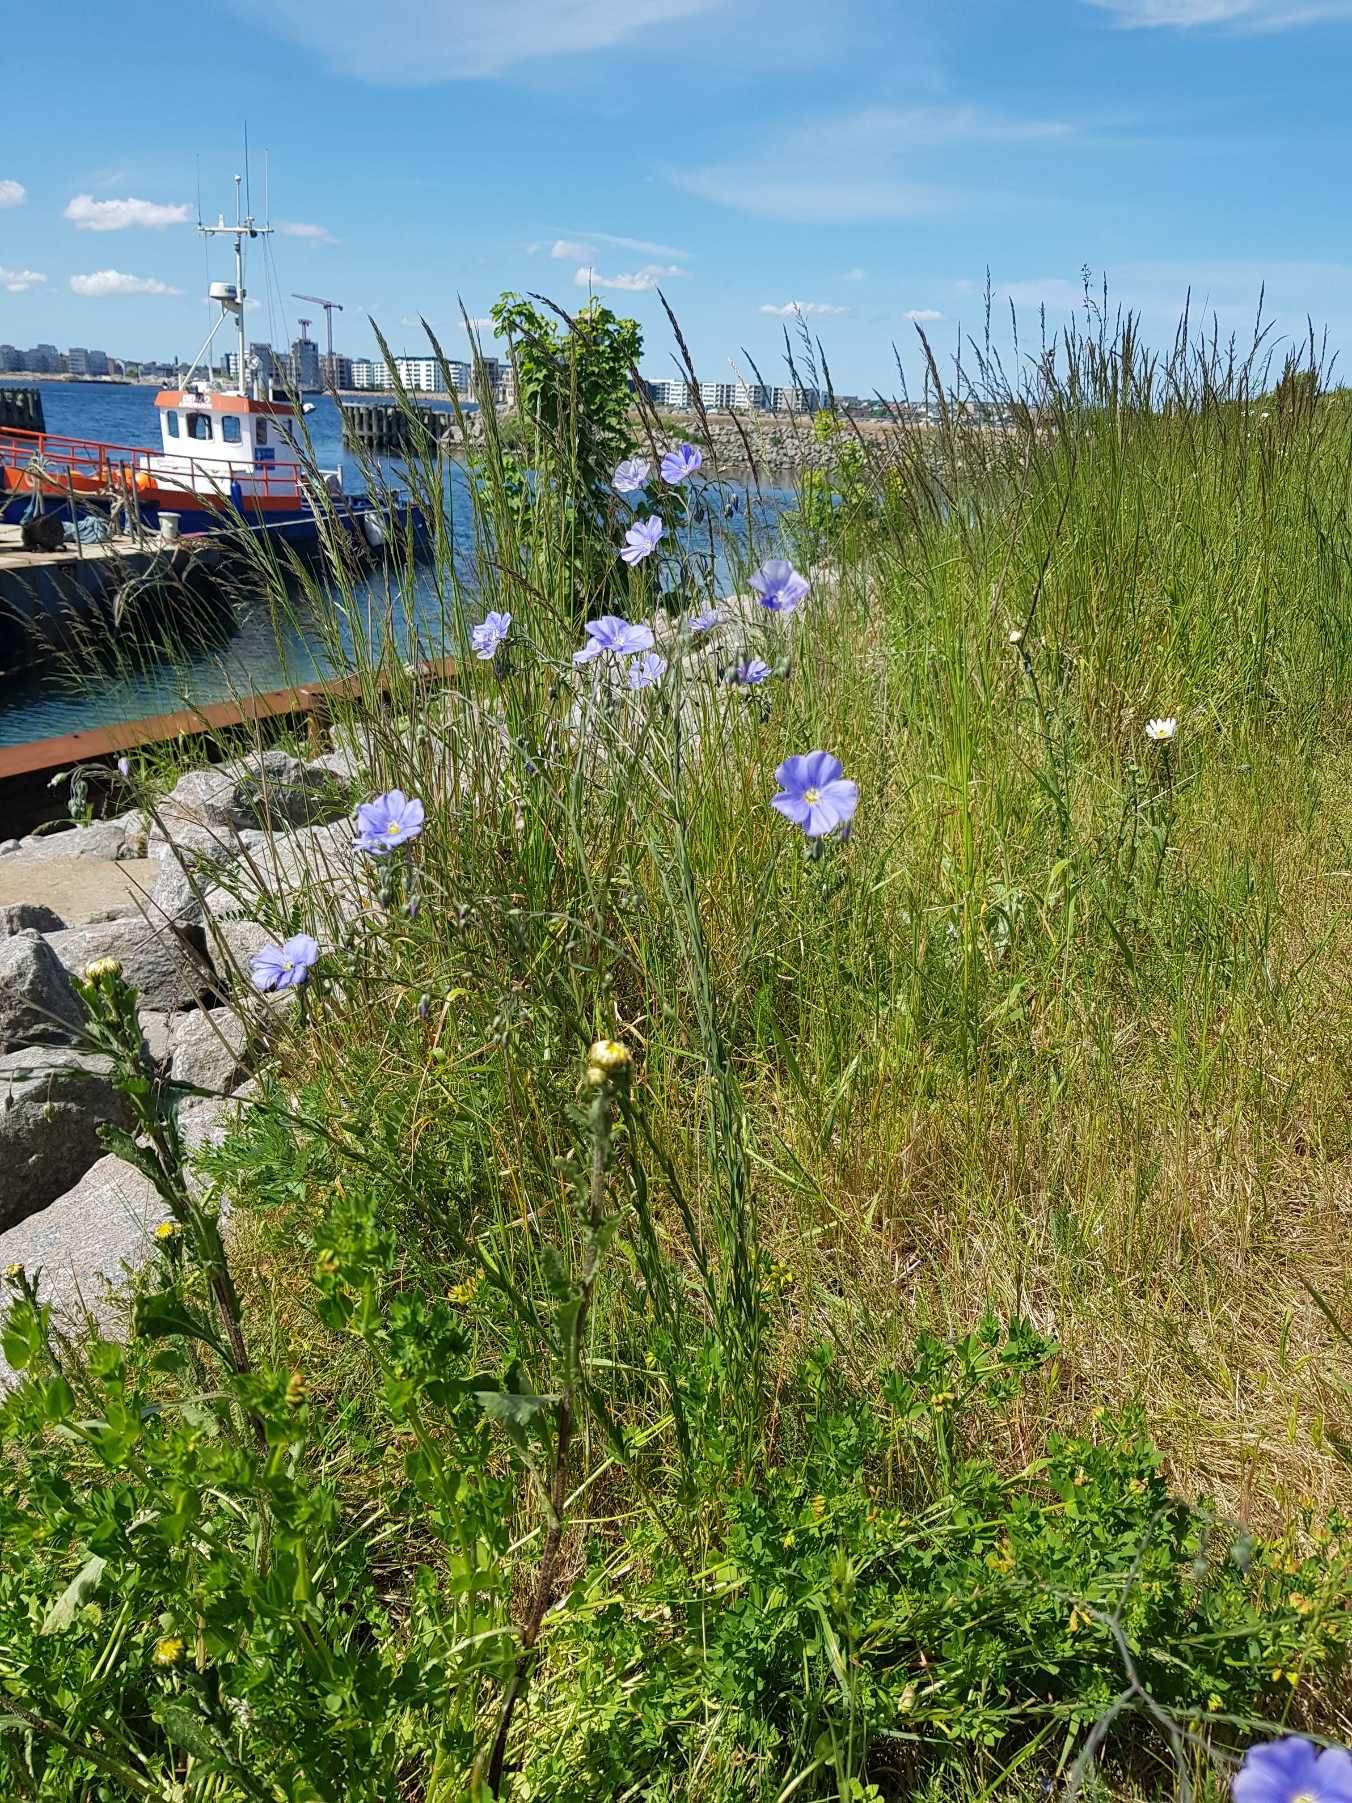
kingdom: Plantae
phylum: Tracheophyta
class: Magnoliopsida
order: Malpighiales
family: Linaceae
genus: Linum
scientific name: Linum austriacum
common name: Østrigsk hør
